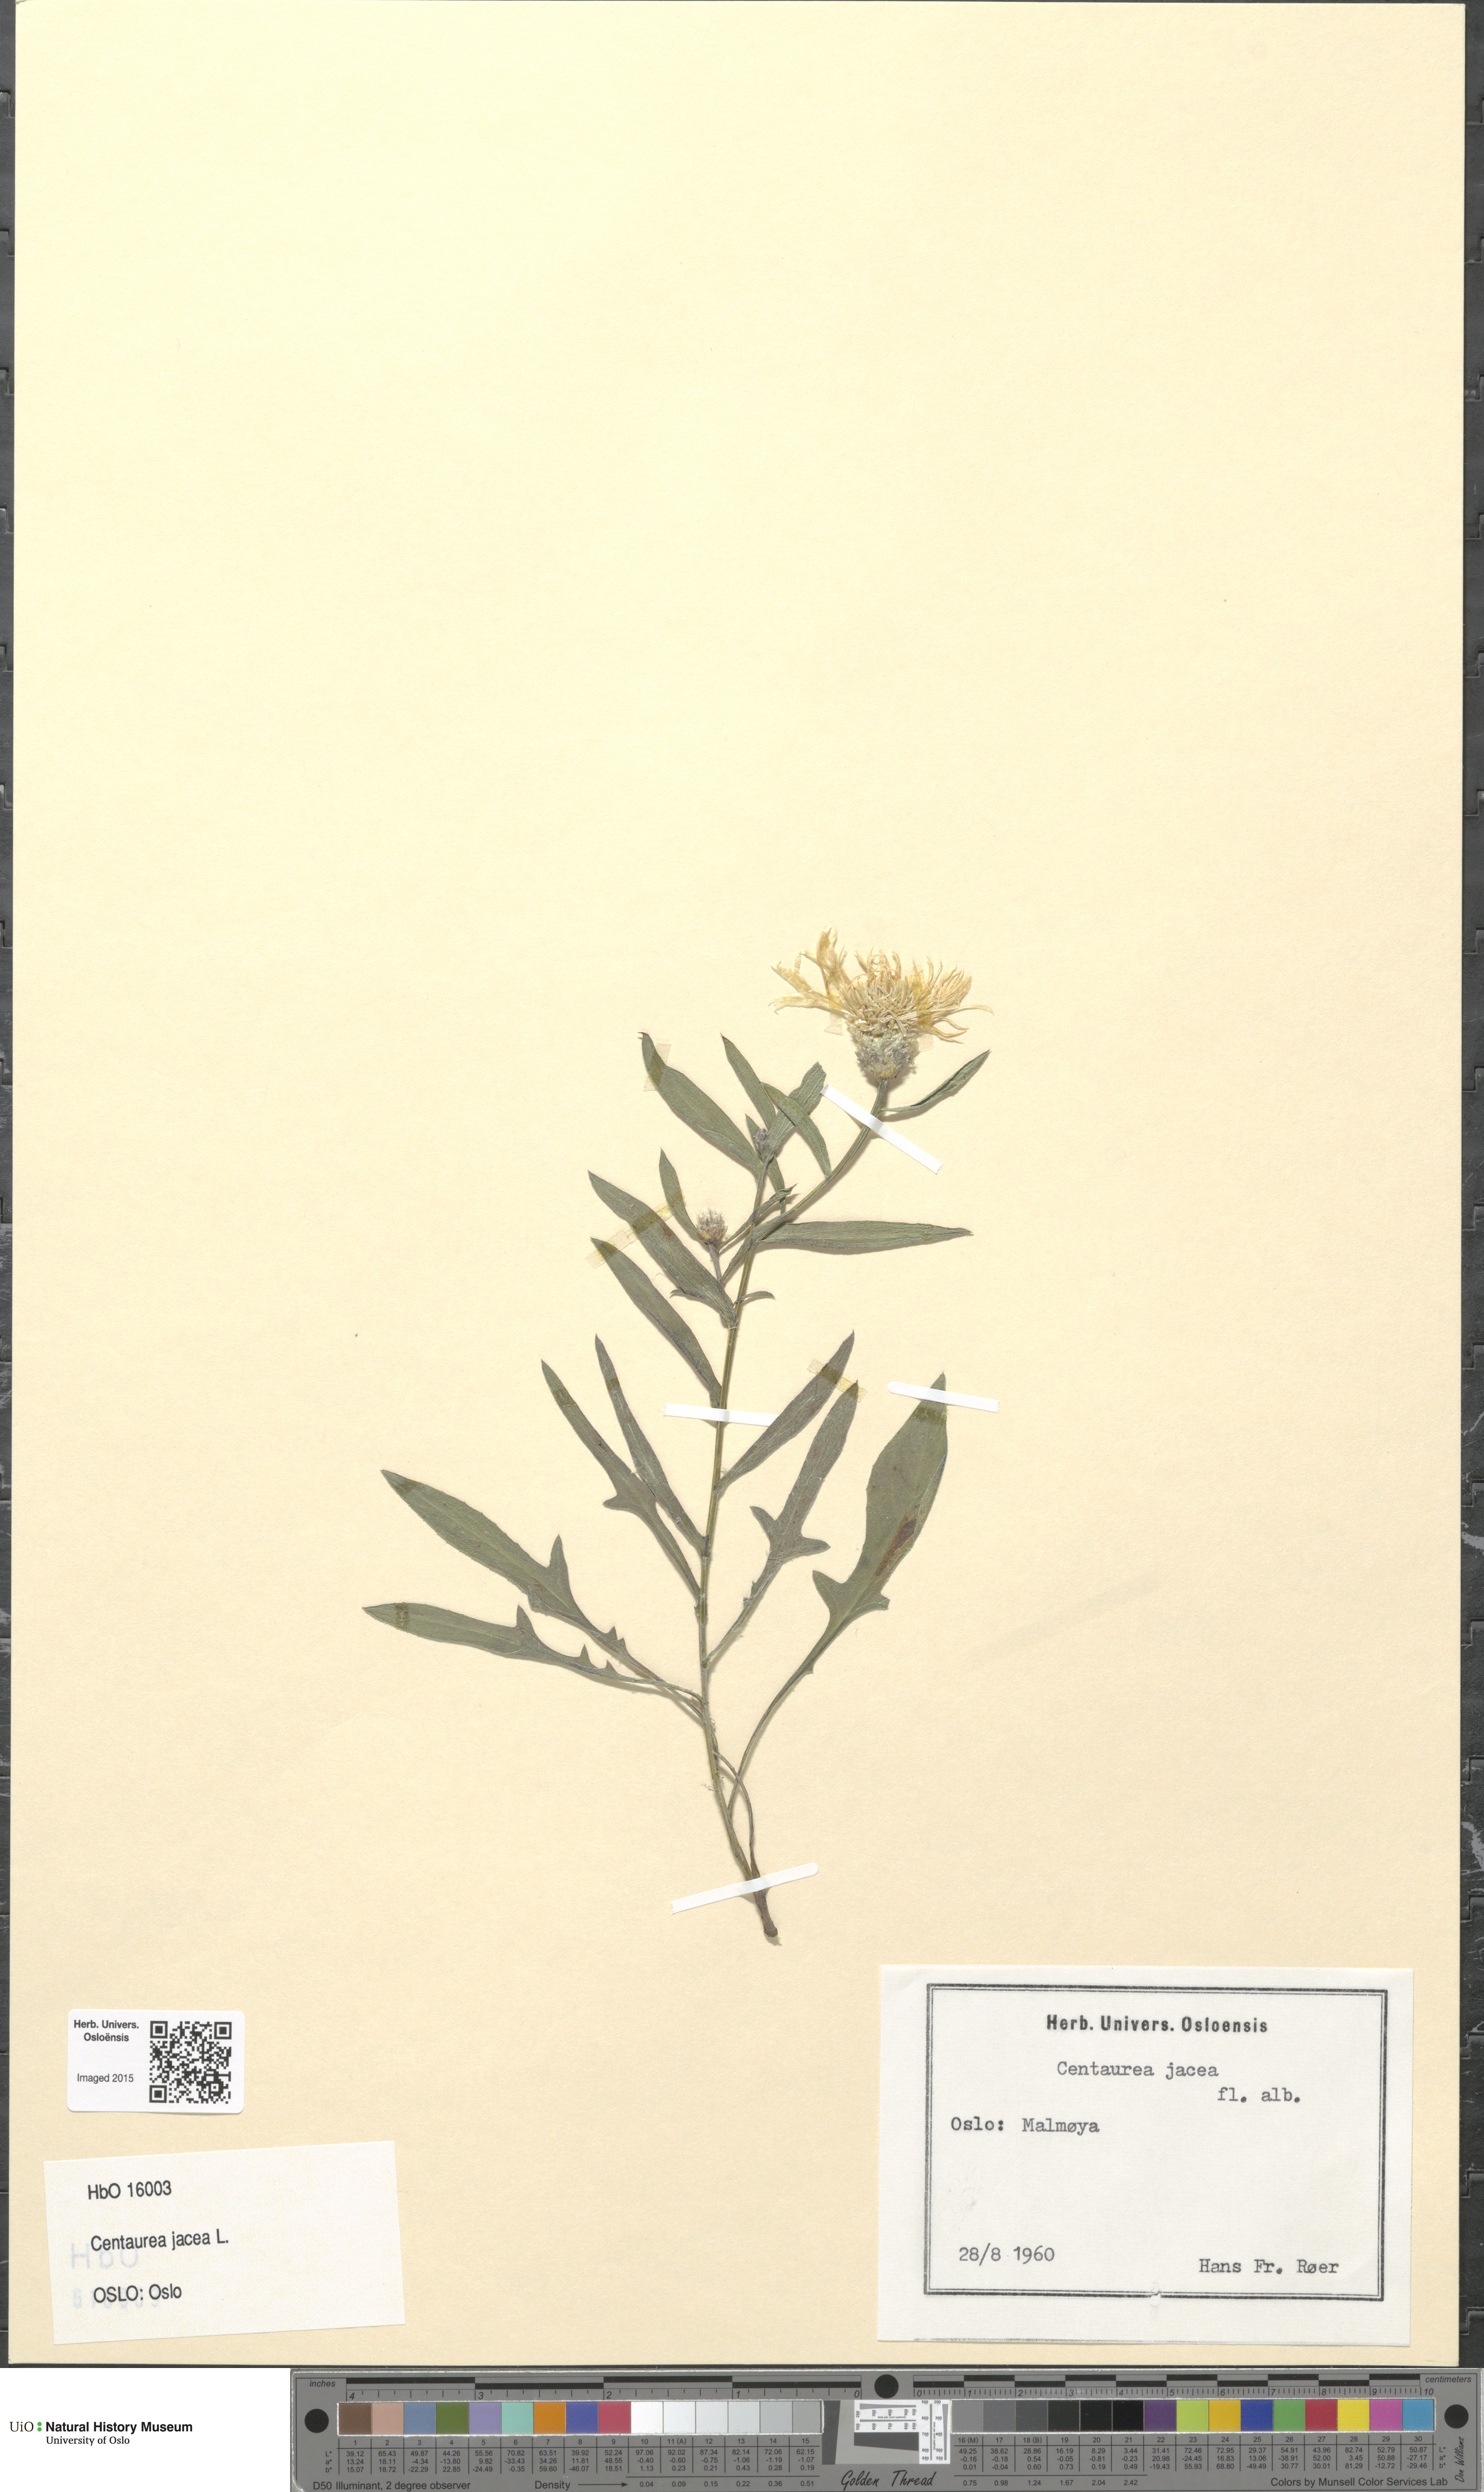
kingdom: Plantae
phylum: Tracheophyta
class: Magnoliopsida
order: Asterales
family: Asteraceae
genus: Centaurea
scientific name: Centaurea jacea
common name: Brown knapweed
